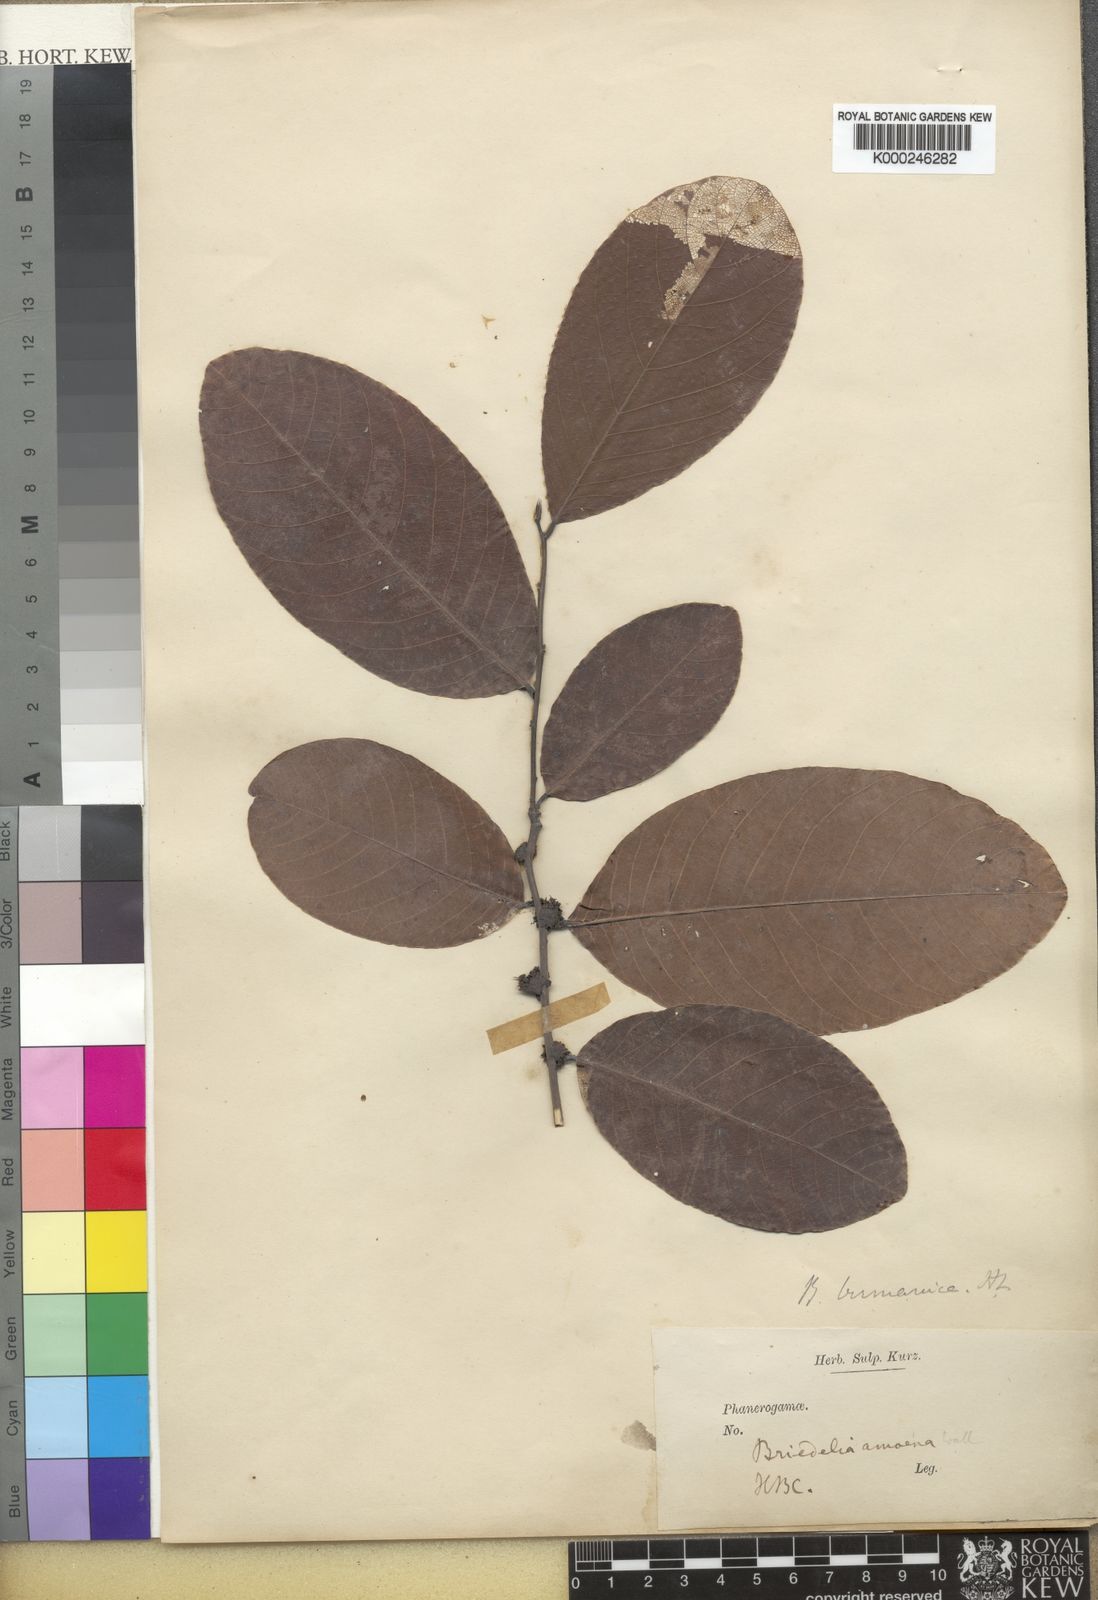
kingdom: Plantae
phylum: Tracheophyta
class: Magnoliopsida
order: Malpighiales
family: Phyllanthaceae
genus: Bridelia
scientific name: Bridelia ovata
